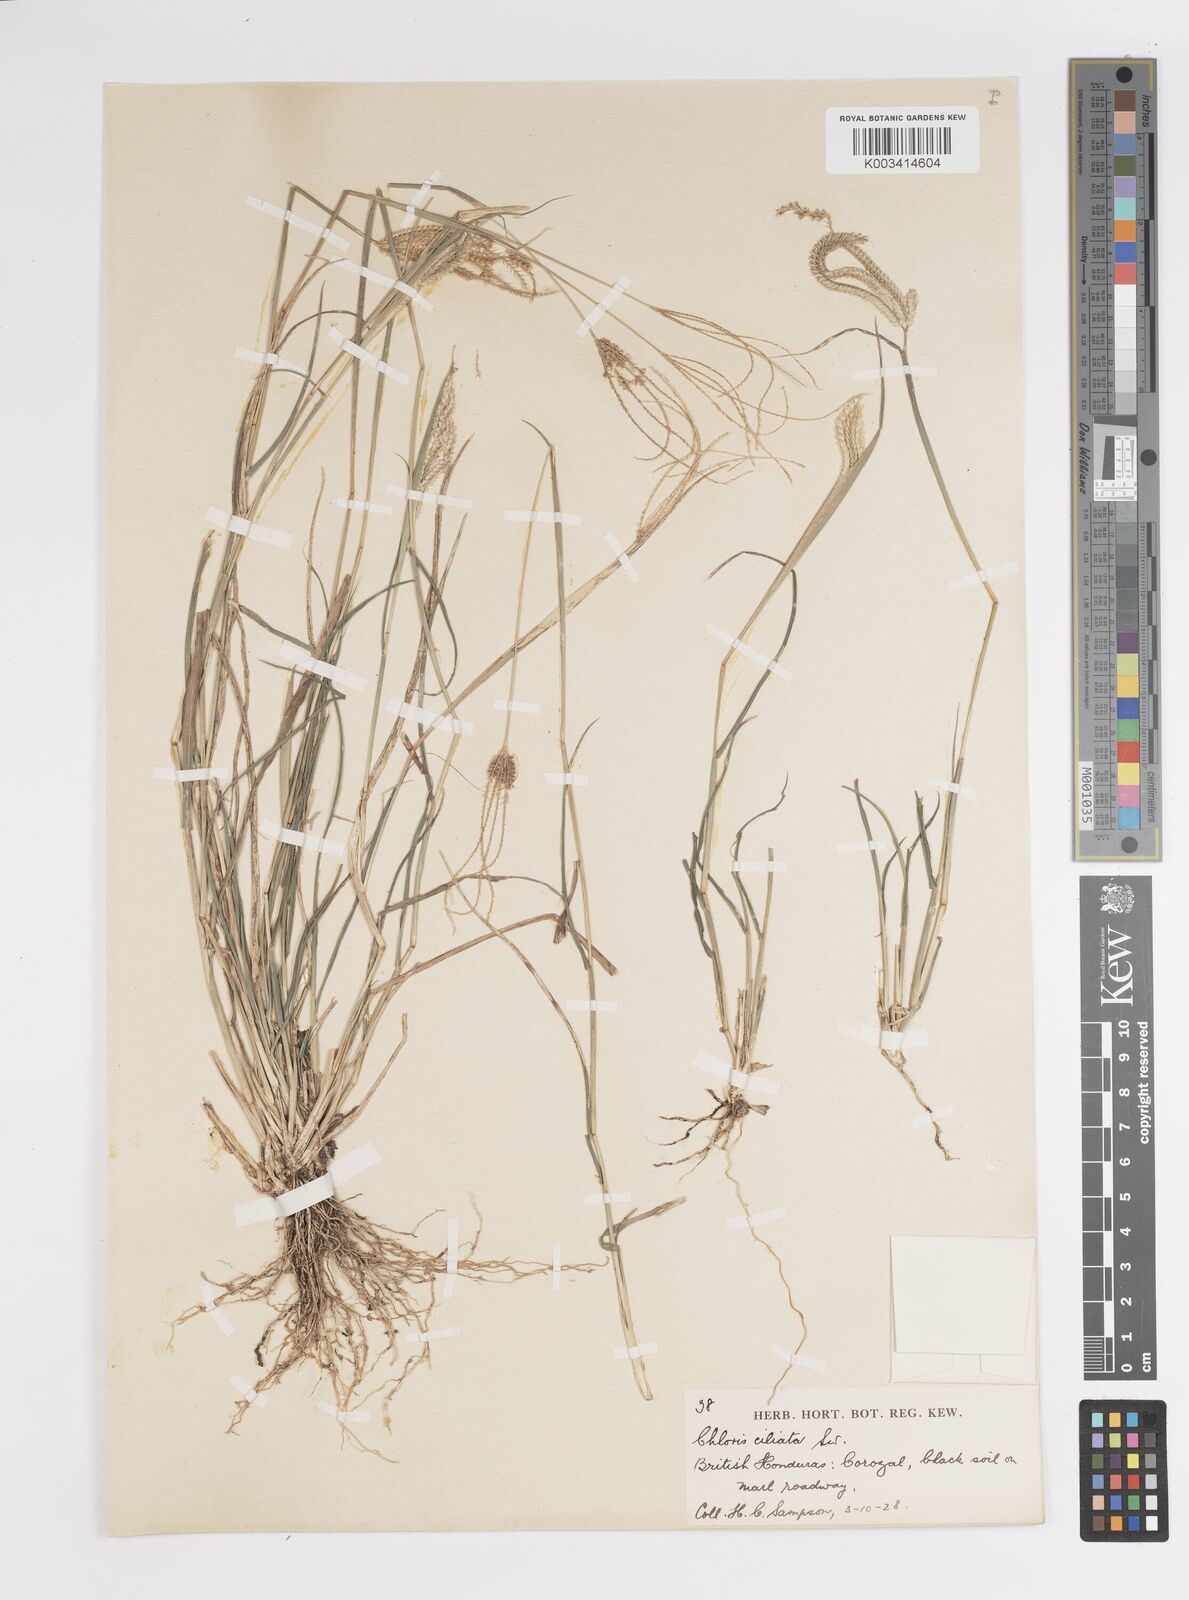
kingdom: Plantae
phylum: Tracheophyta
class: Liliopsida
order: Poales
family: Poaceae
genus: Stapfochloa
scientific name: Stapfochloa ciliata
